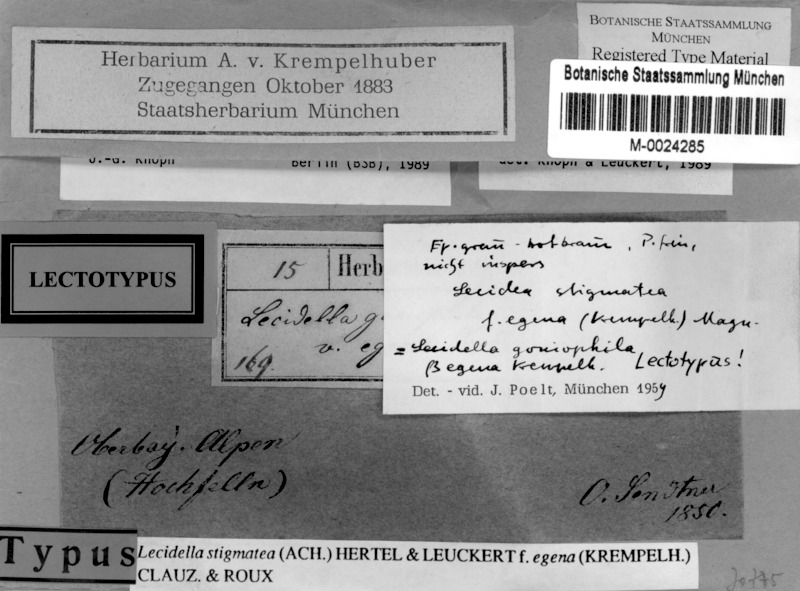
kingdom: Fungi
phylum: Ascomycota
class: Lecanoromycetes
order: Lecanorales
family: Lecanoraceae
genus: Lecidella
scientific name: Lecidella stigmatea
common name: Limestone disc lichen
